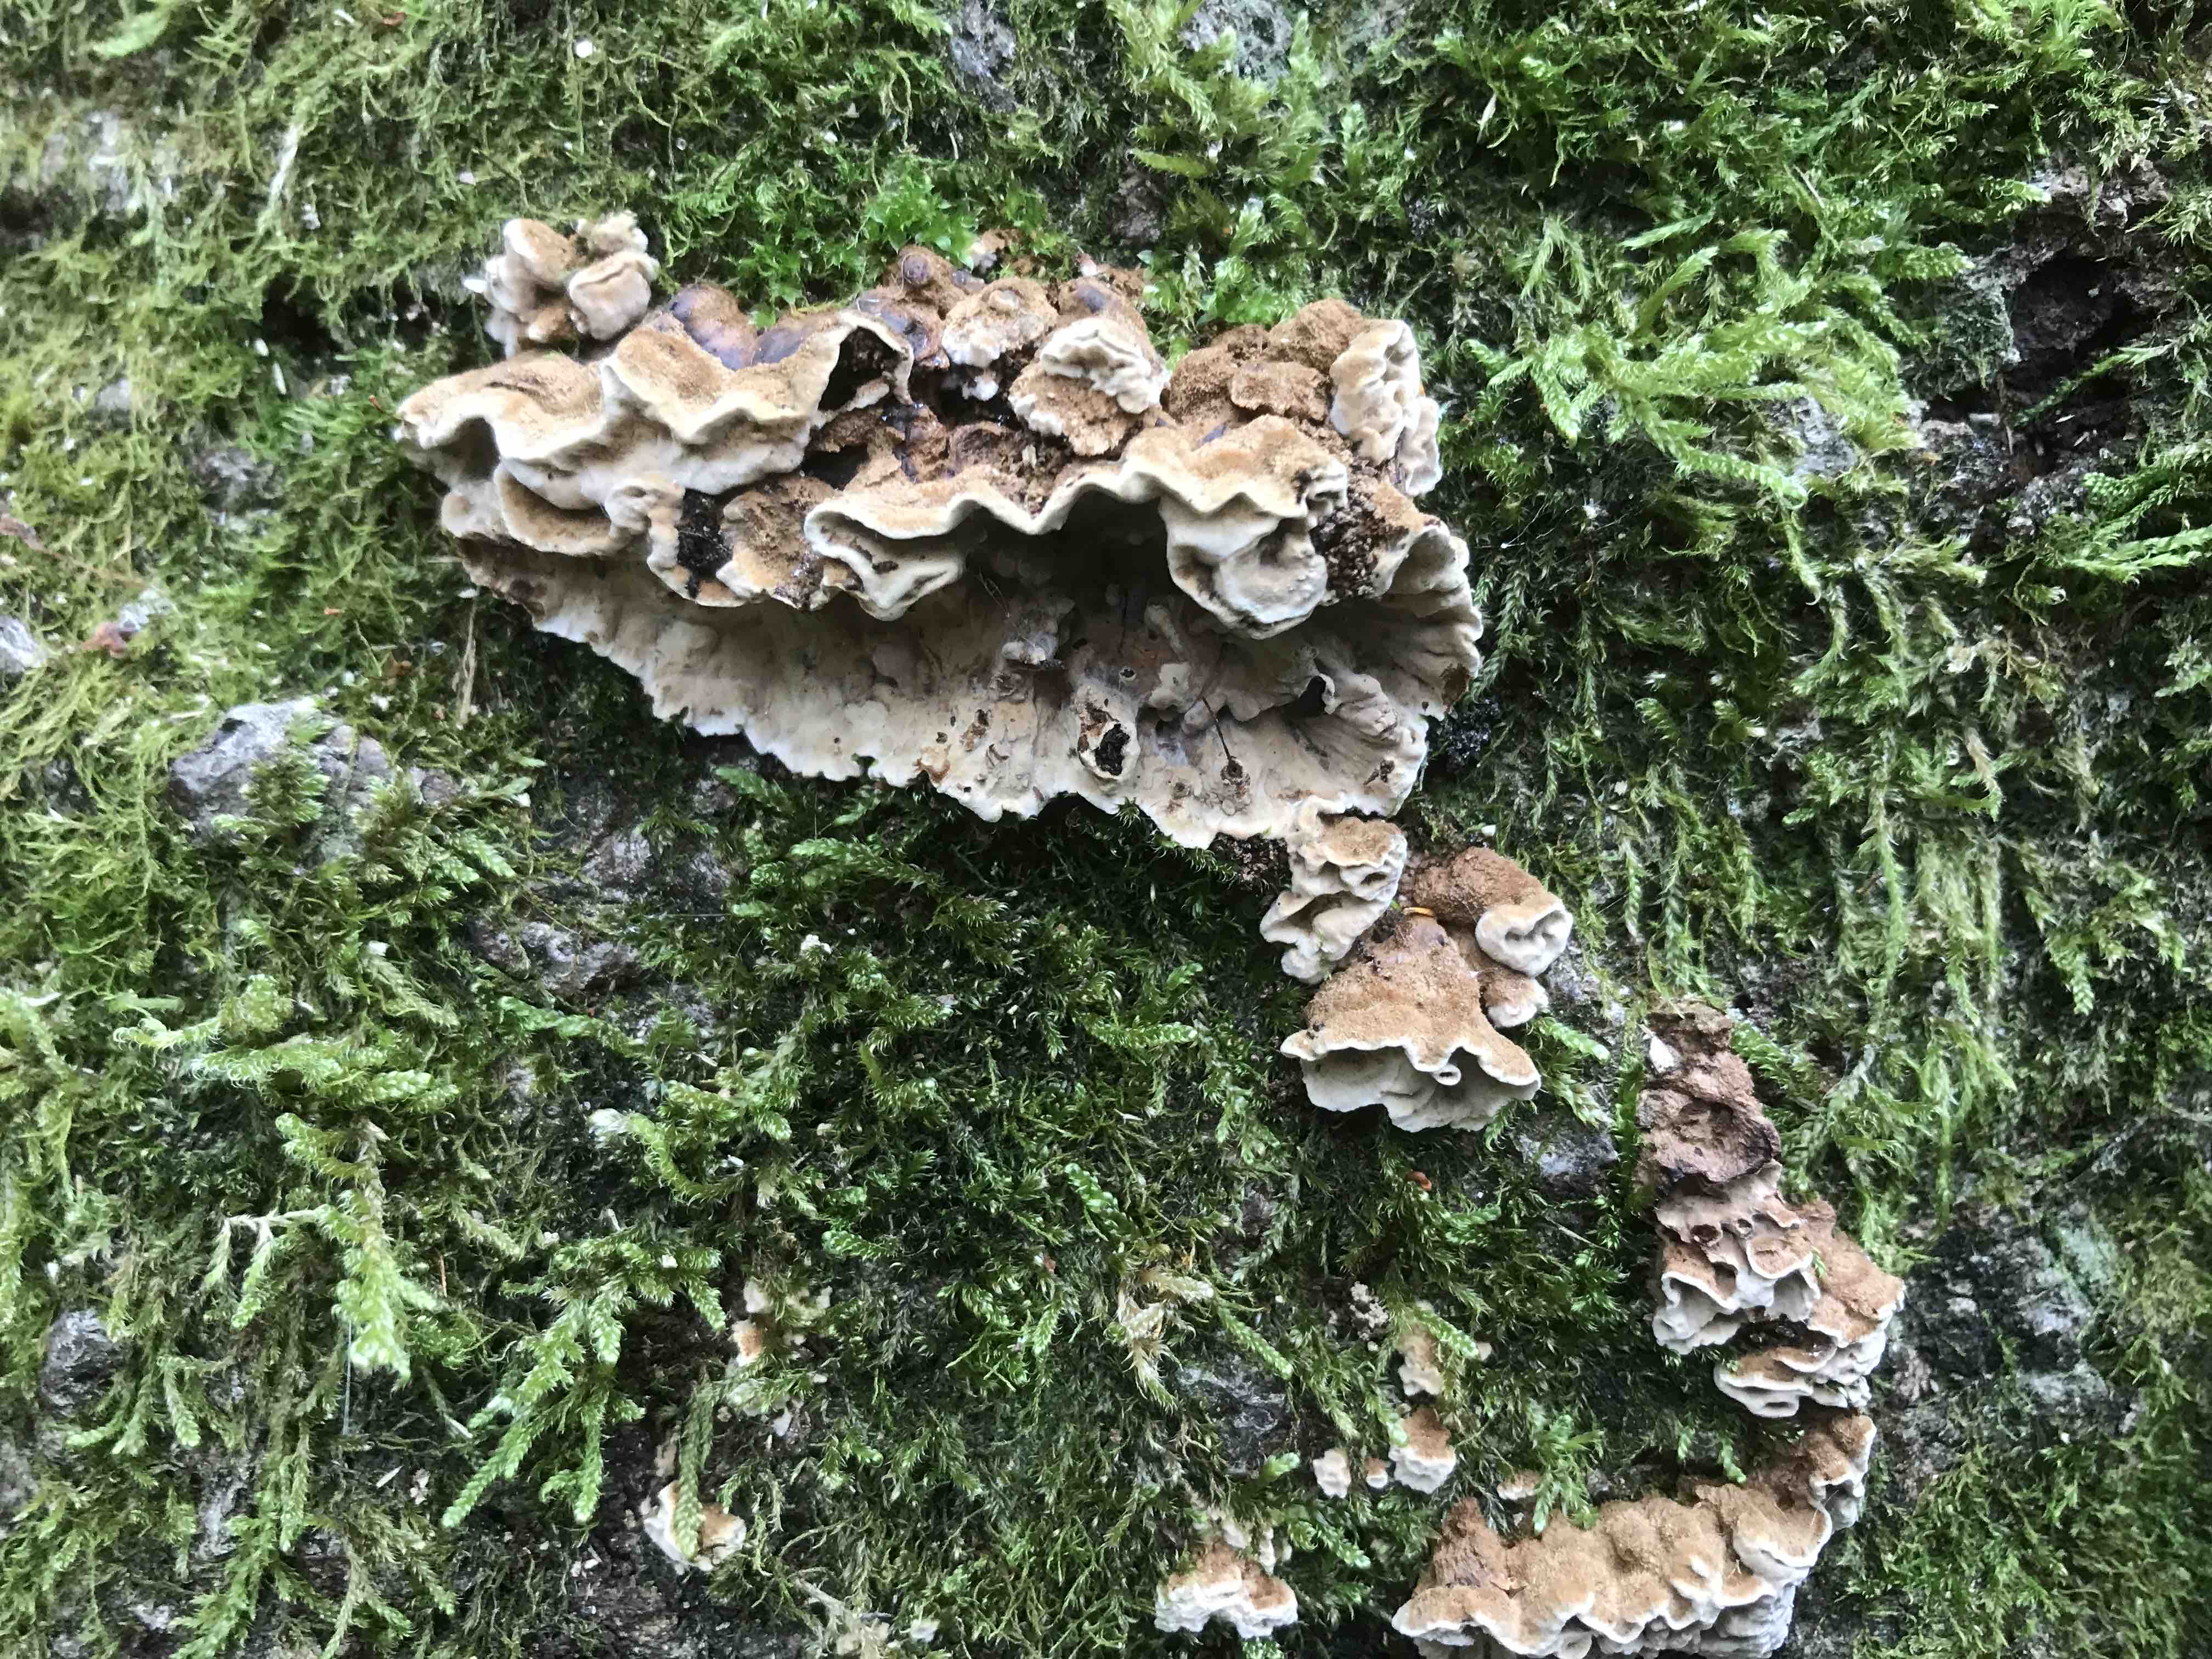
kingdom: Fungi
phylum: Basidiomycota
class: Agaricomycetes
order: Russulales
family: Hericiaceae
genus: Laxitextum
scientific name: Laxitextum bicolor
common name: tvefarvet filtskind
